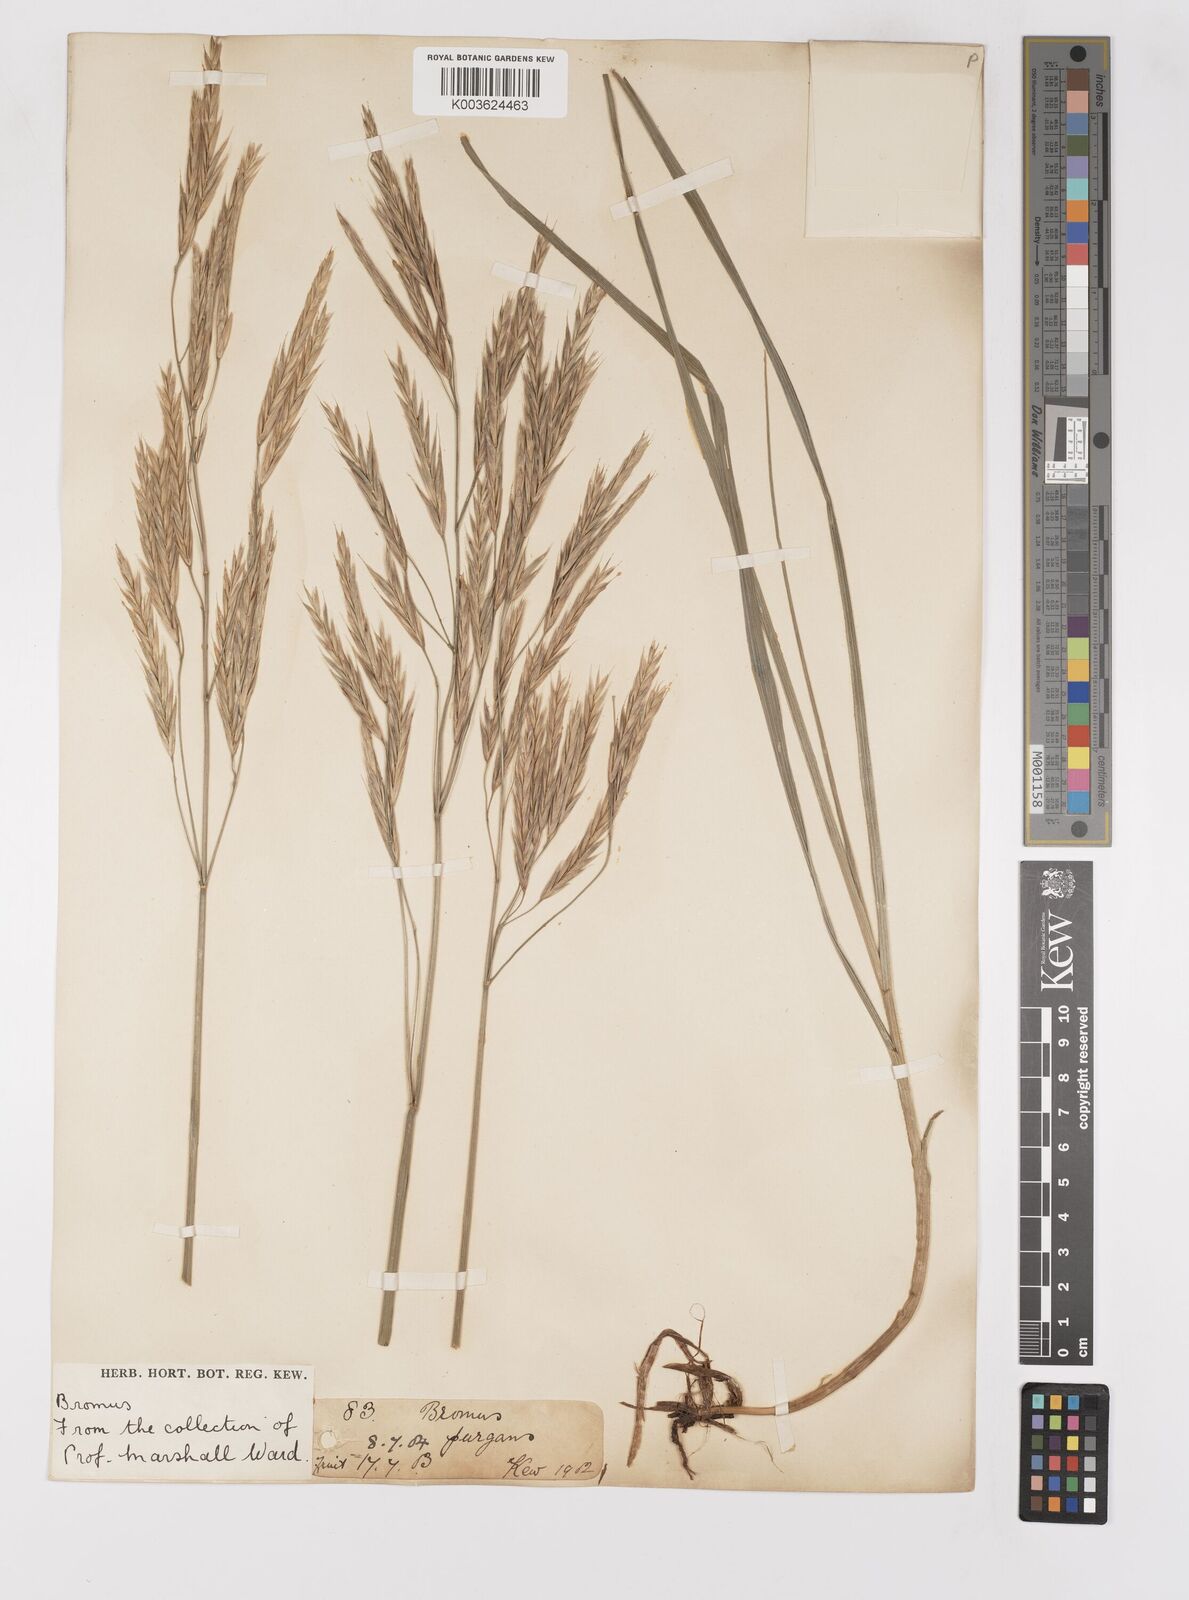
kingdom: Plantae
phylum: Tracheophyta
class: Liliopsida
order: Poales
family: Poaceae
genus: Bromus
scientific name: Bromus
